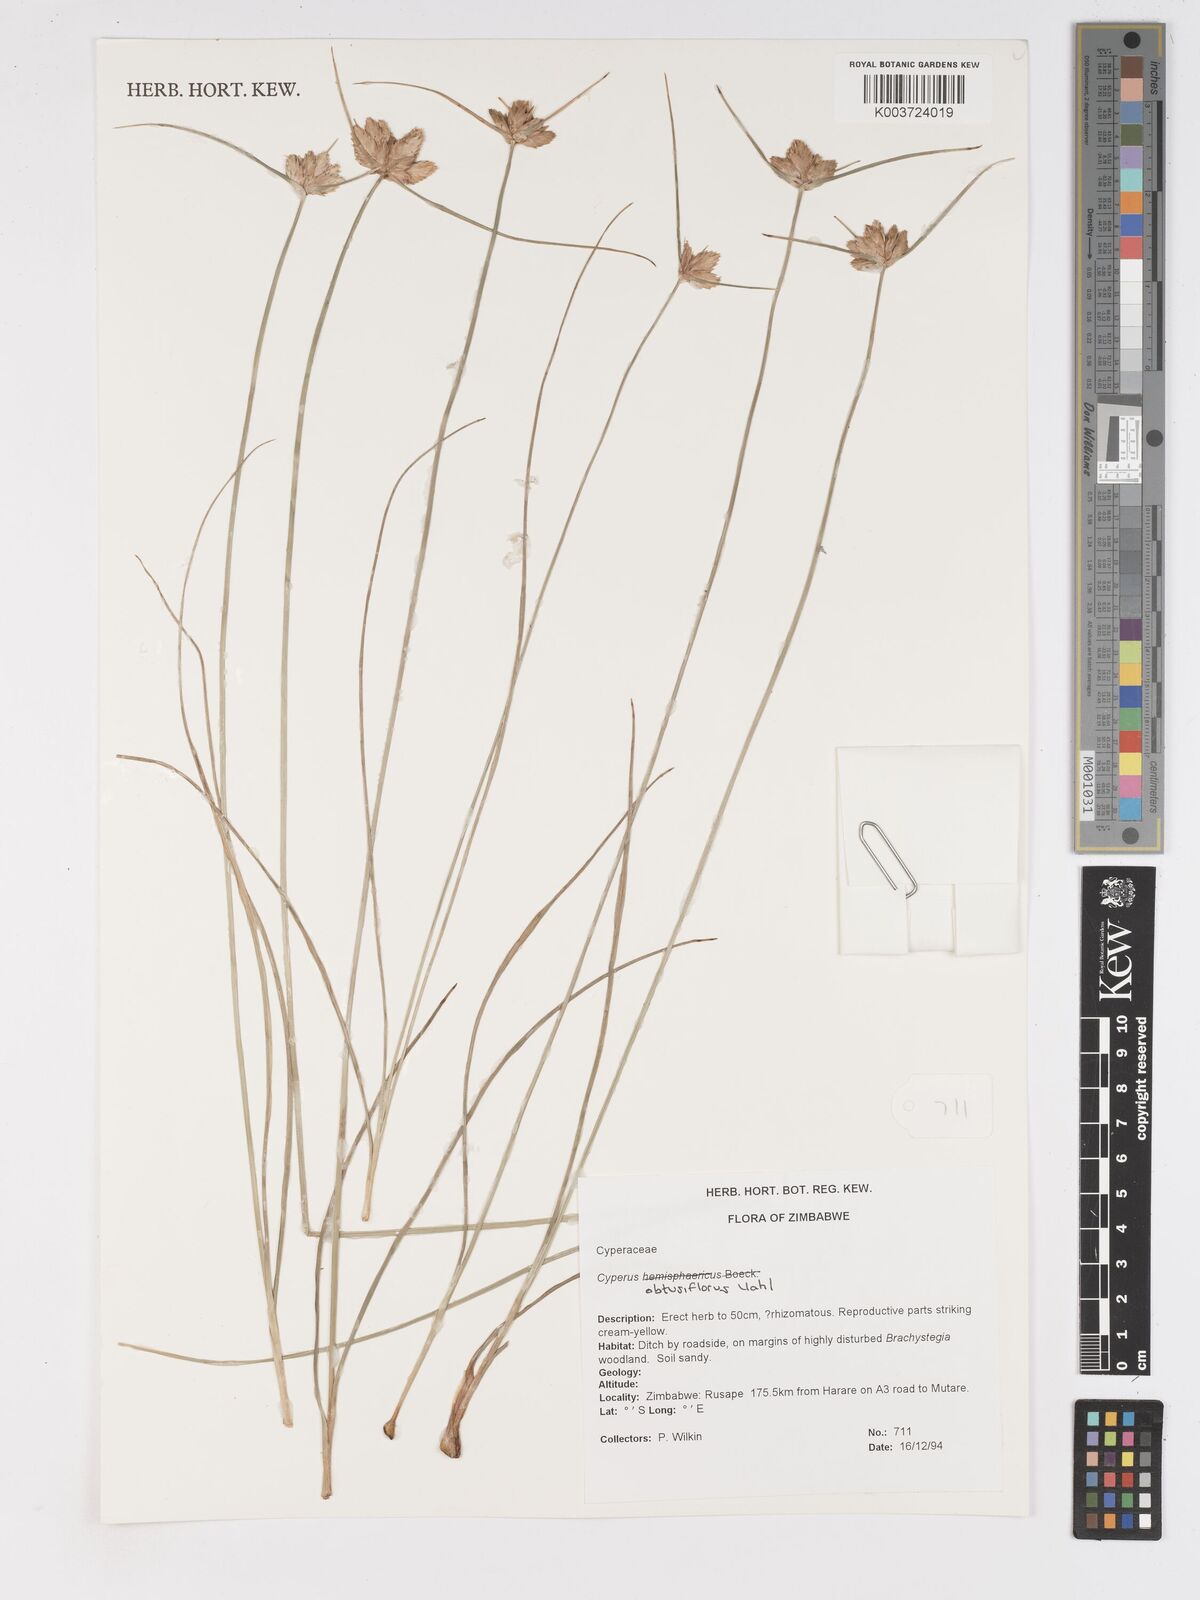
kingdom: Plantae
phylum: Tracheophyta
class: Liliopsida
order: Poales
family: Cyperaceae
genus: Cyperus
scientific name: Cyperus niveus
